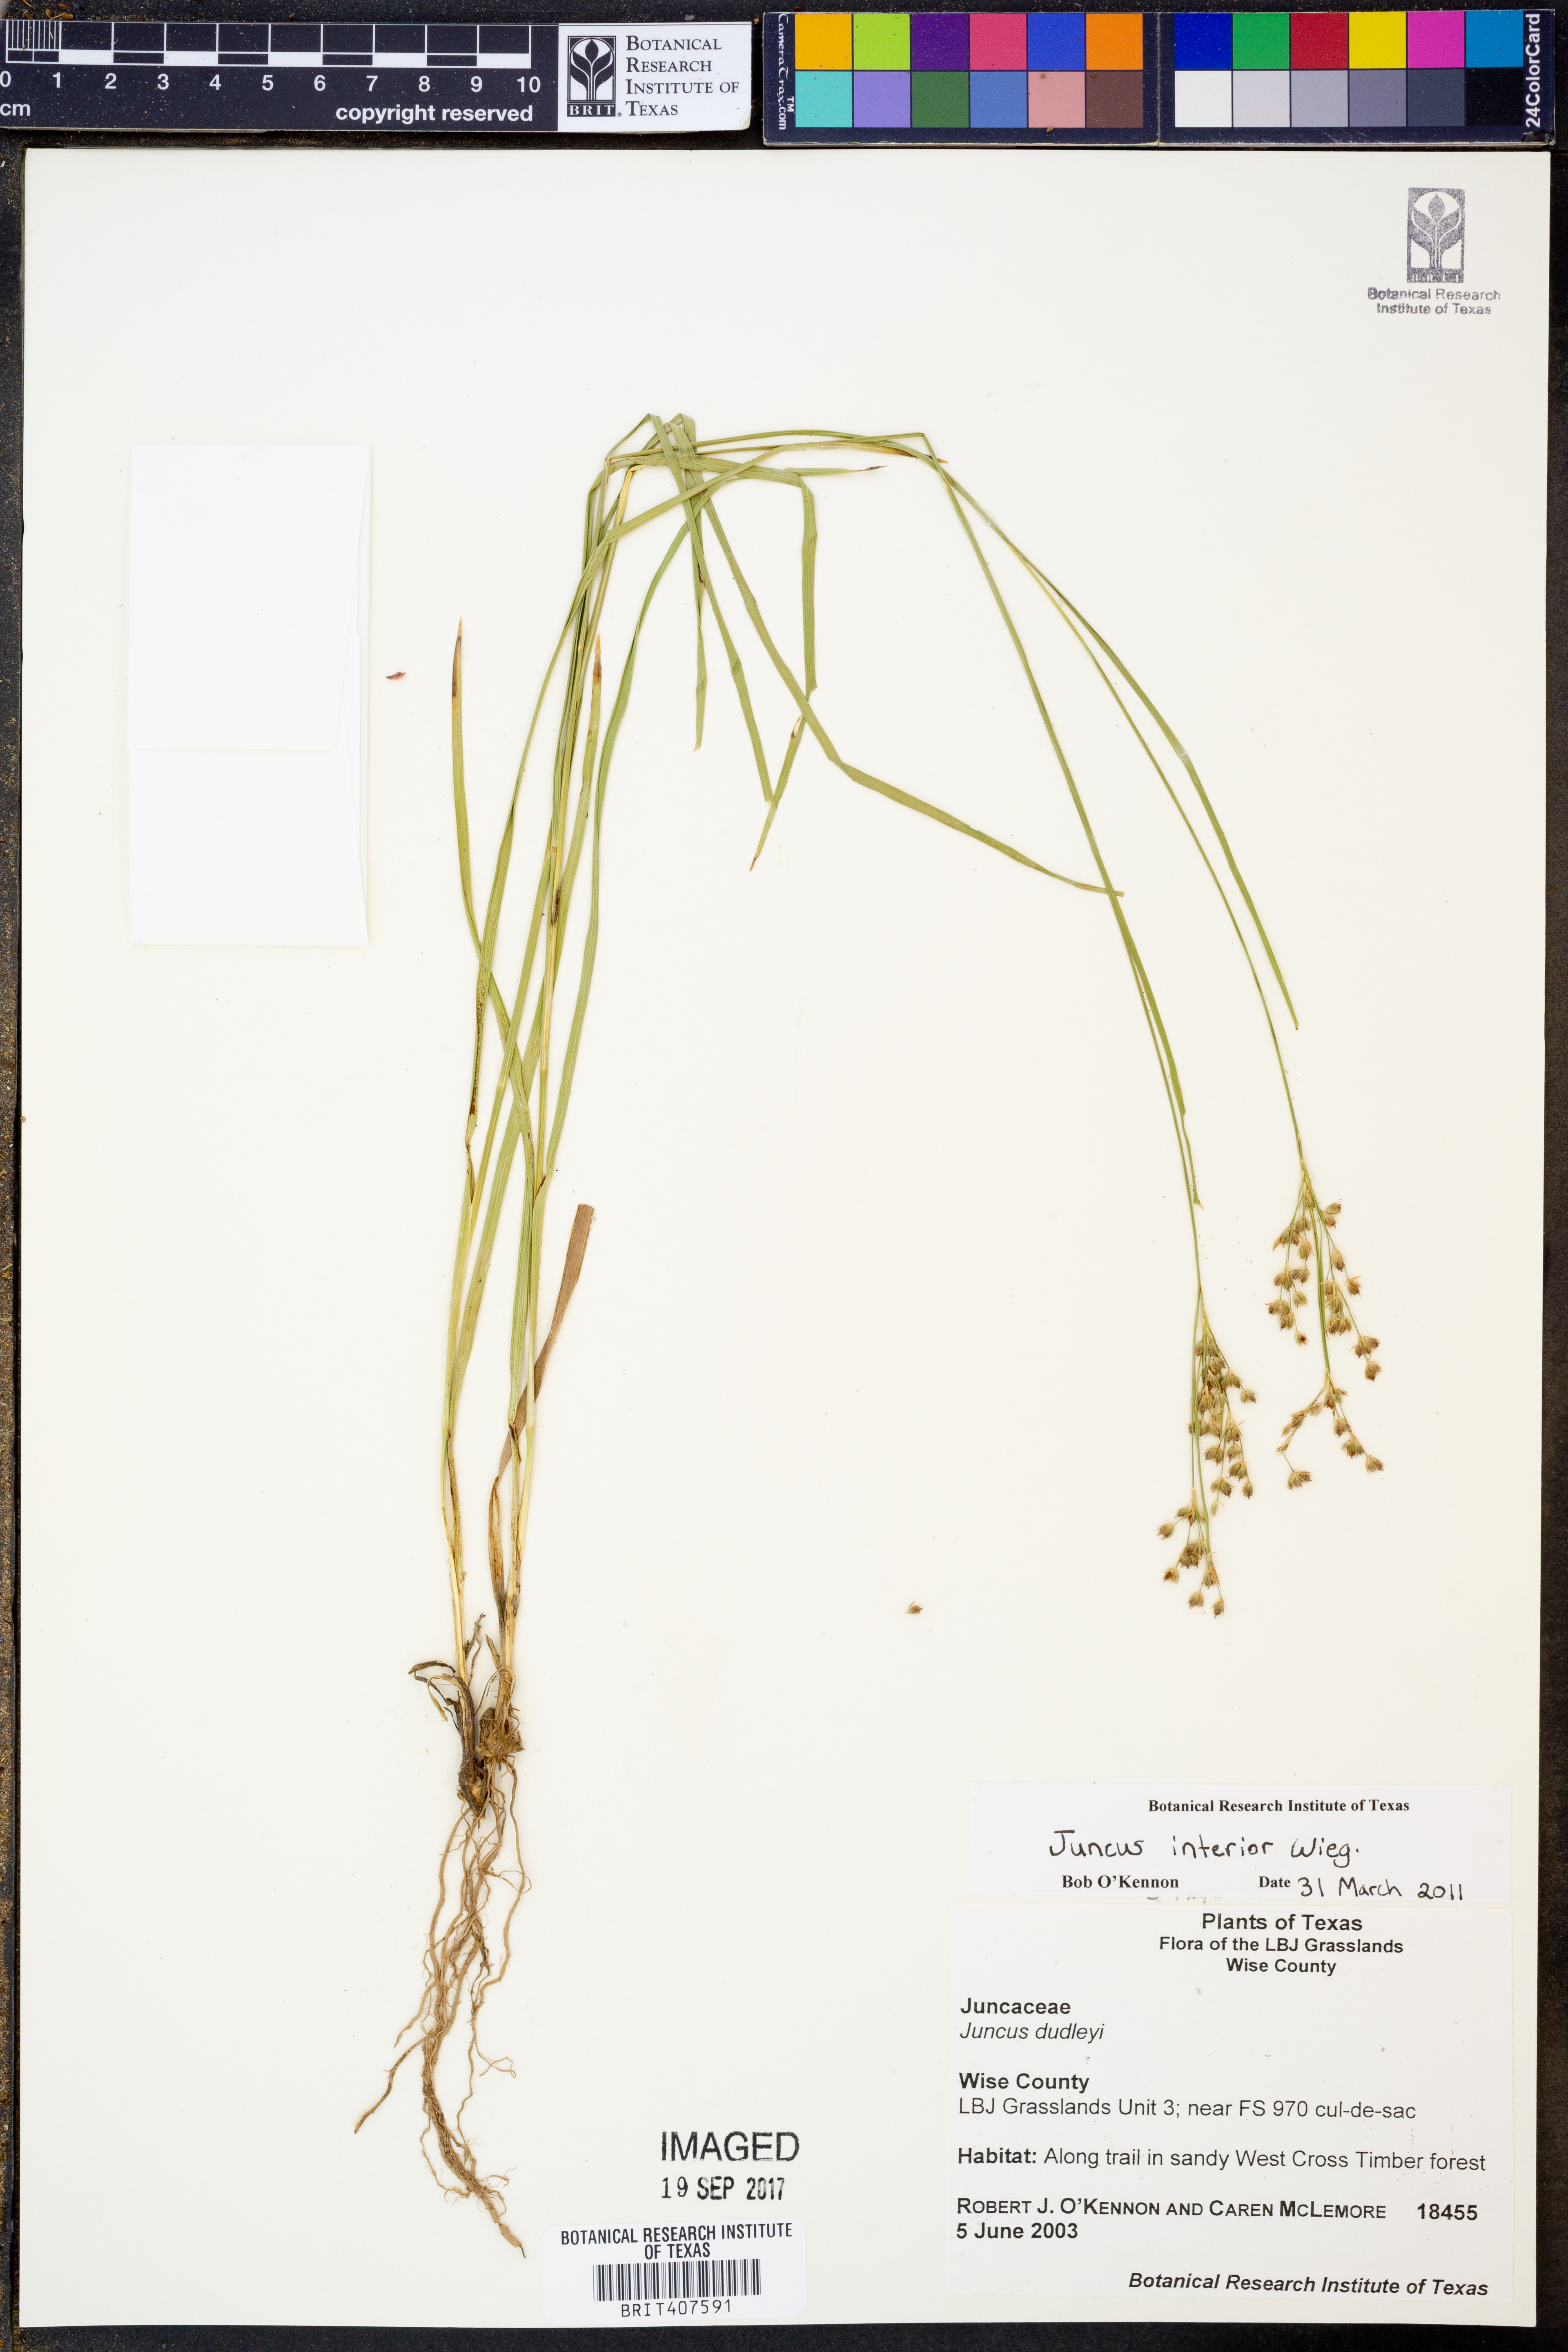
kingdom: Plantae
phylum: Tracheophyta
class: Liliopsida
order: Poales
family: Juncaceae
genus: Juncus
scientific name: Juncus interior
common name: Interior rush
